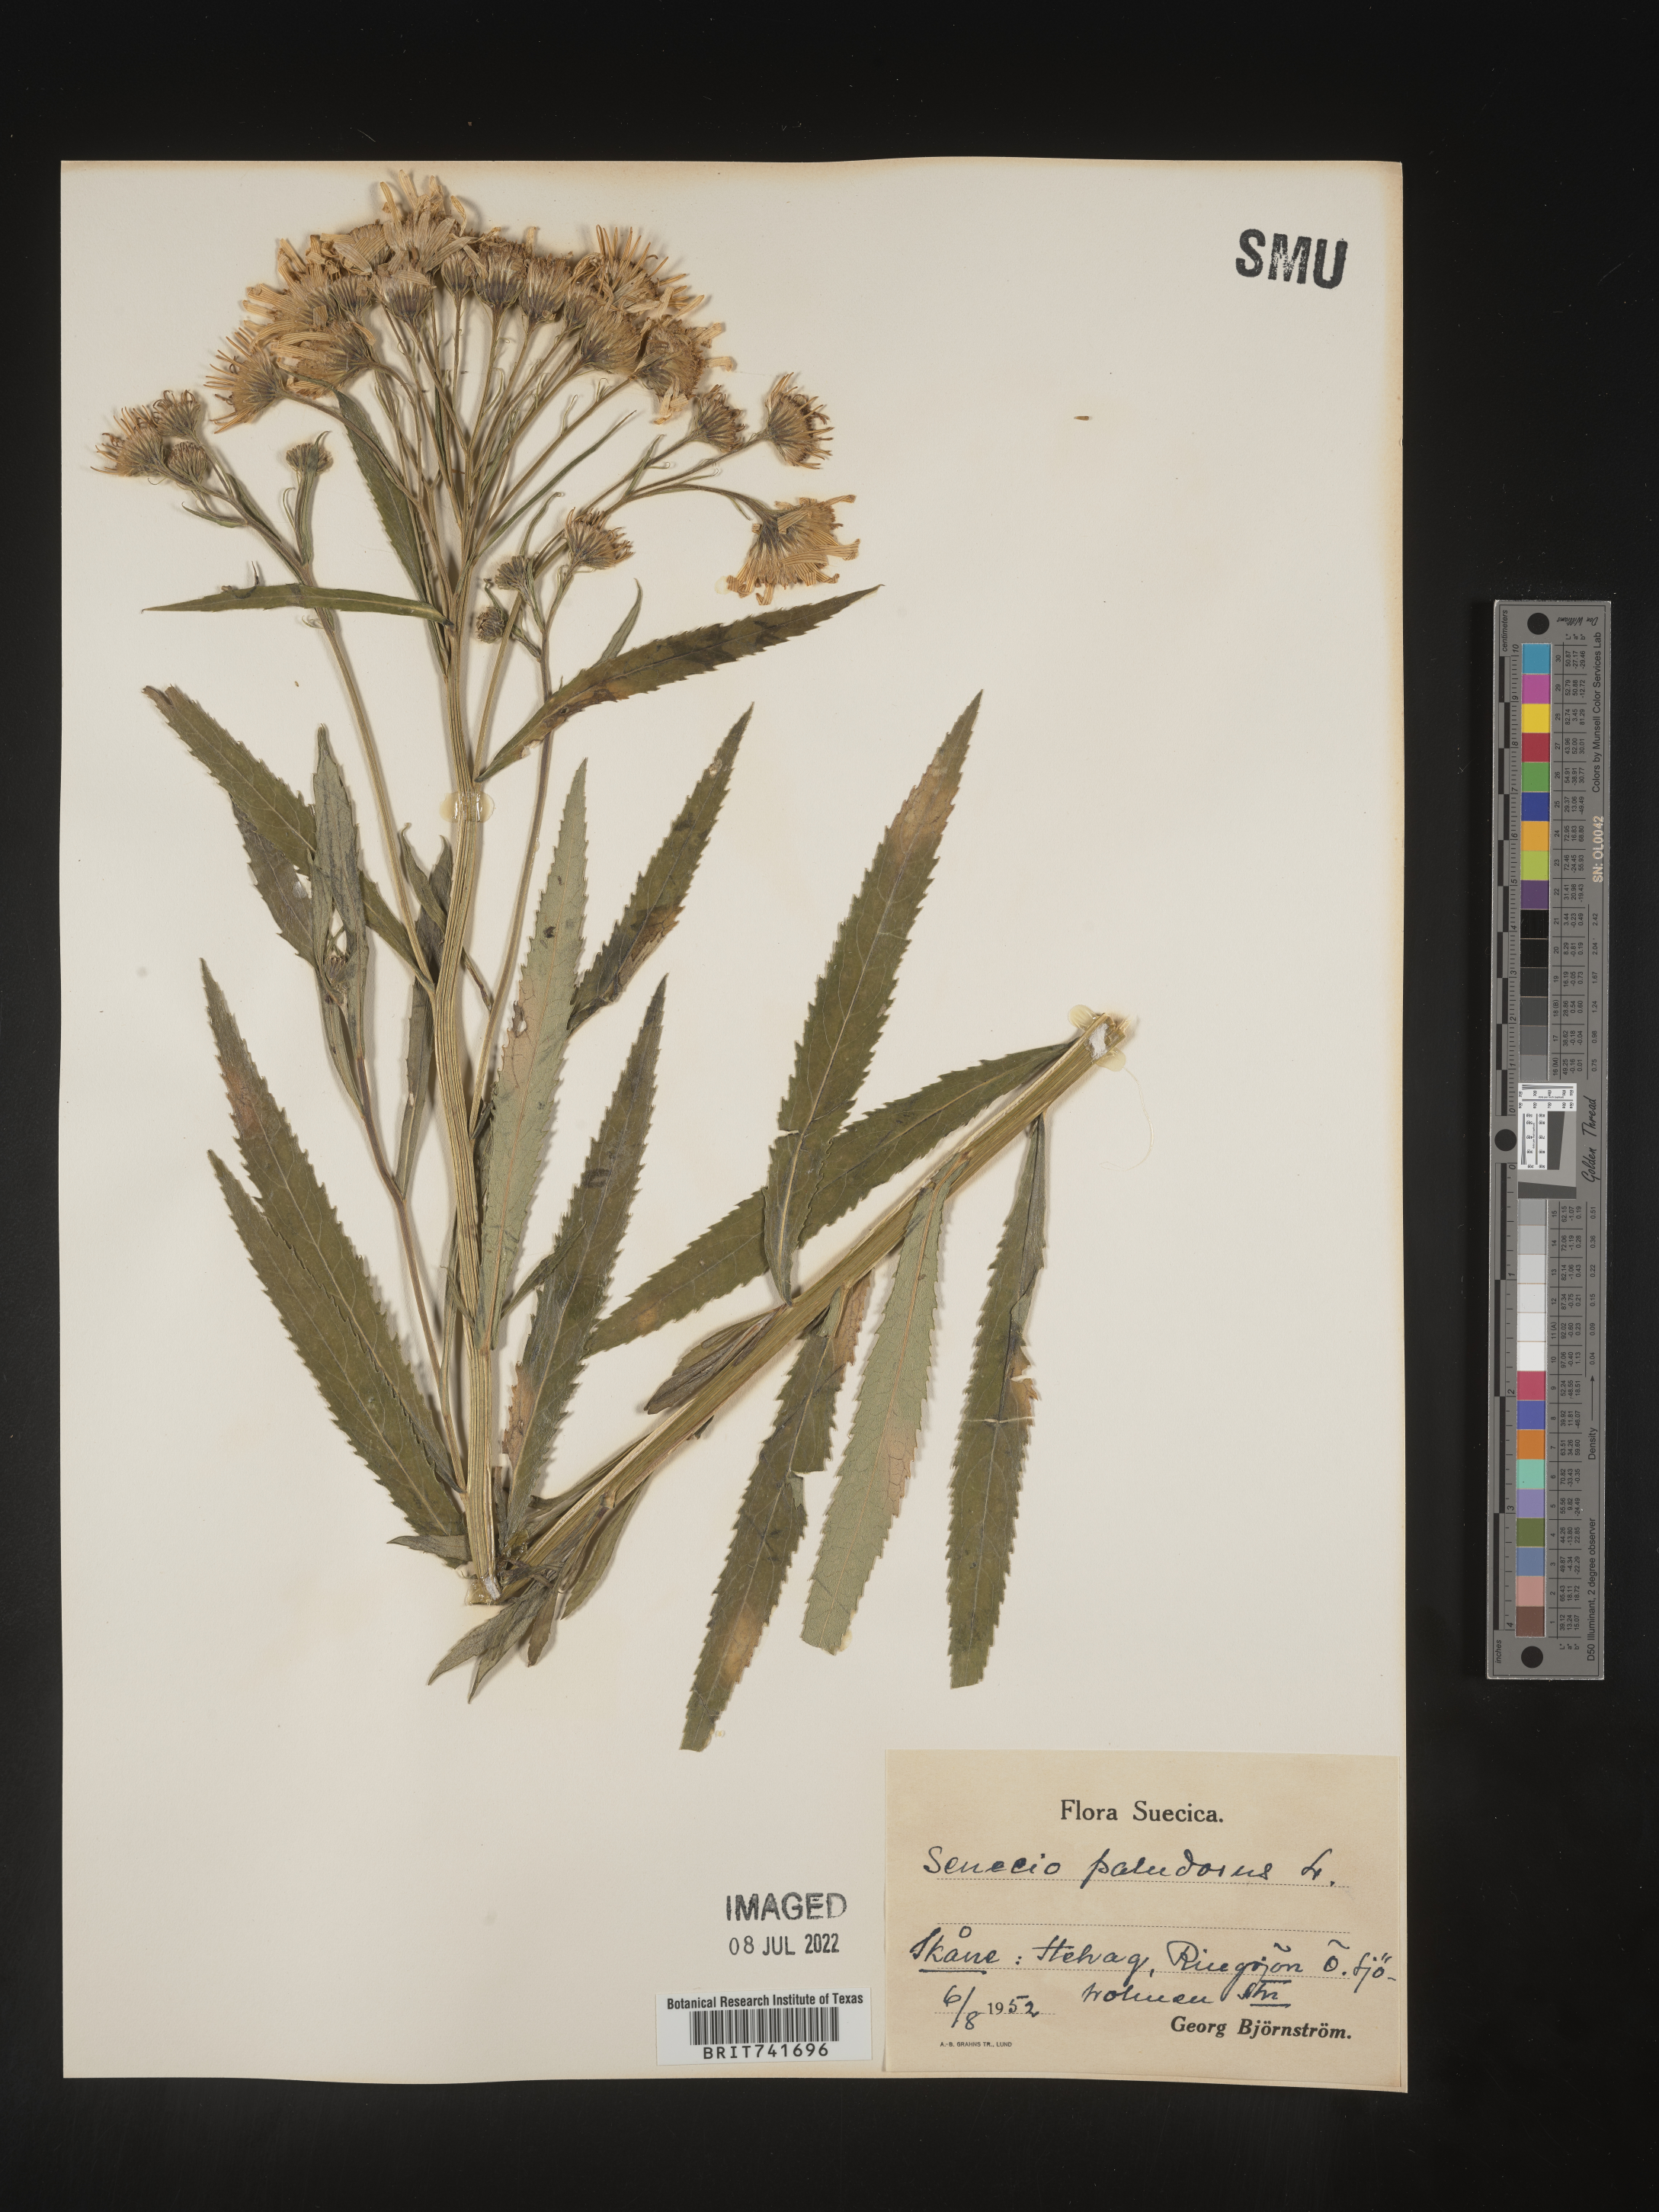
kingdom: Plantae
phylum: Tracheophyta
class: Magnoliopsida
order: Asterales
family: Asteraceae
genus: Senecio
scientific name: Senecio
